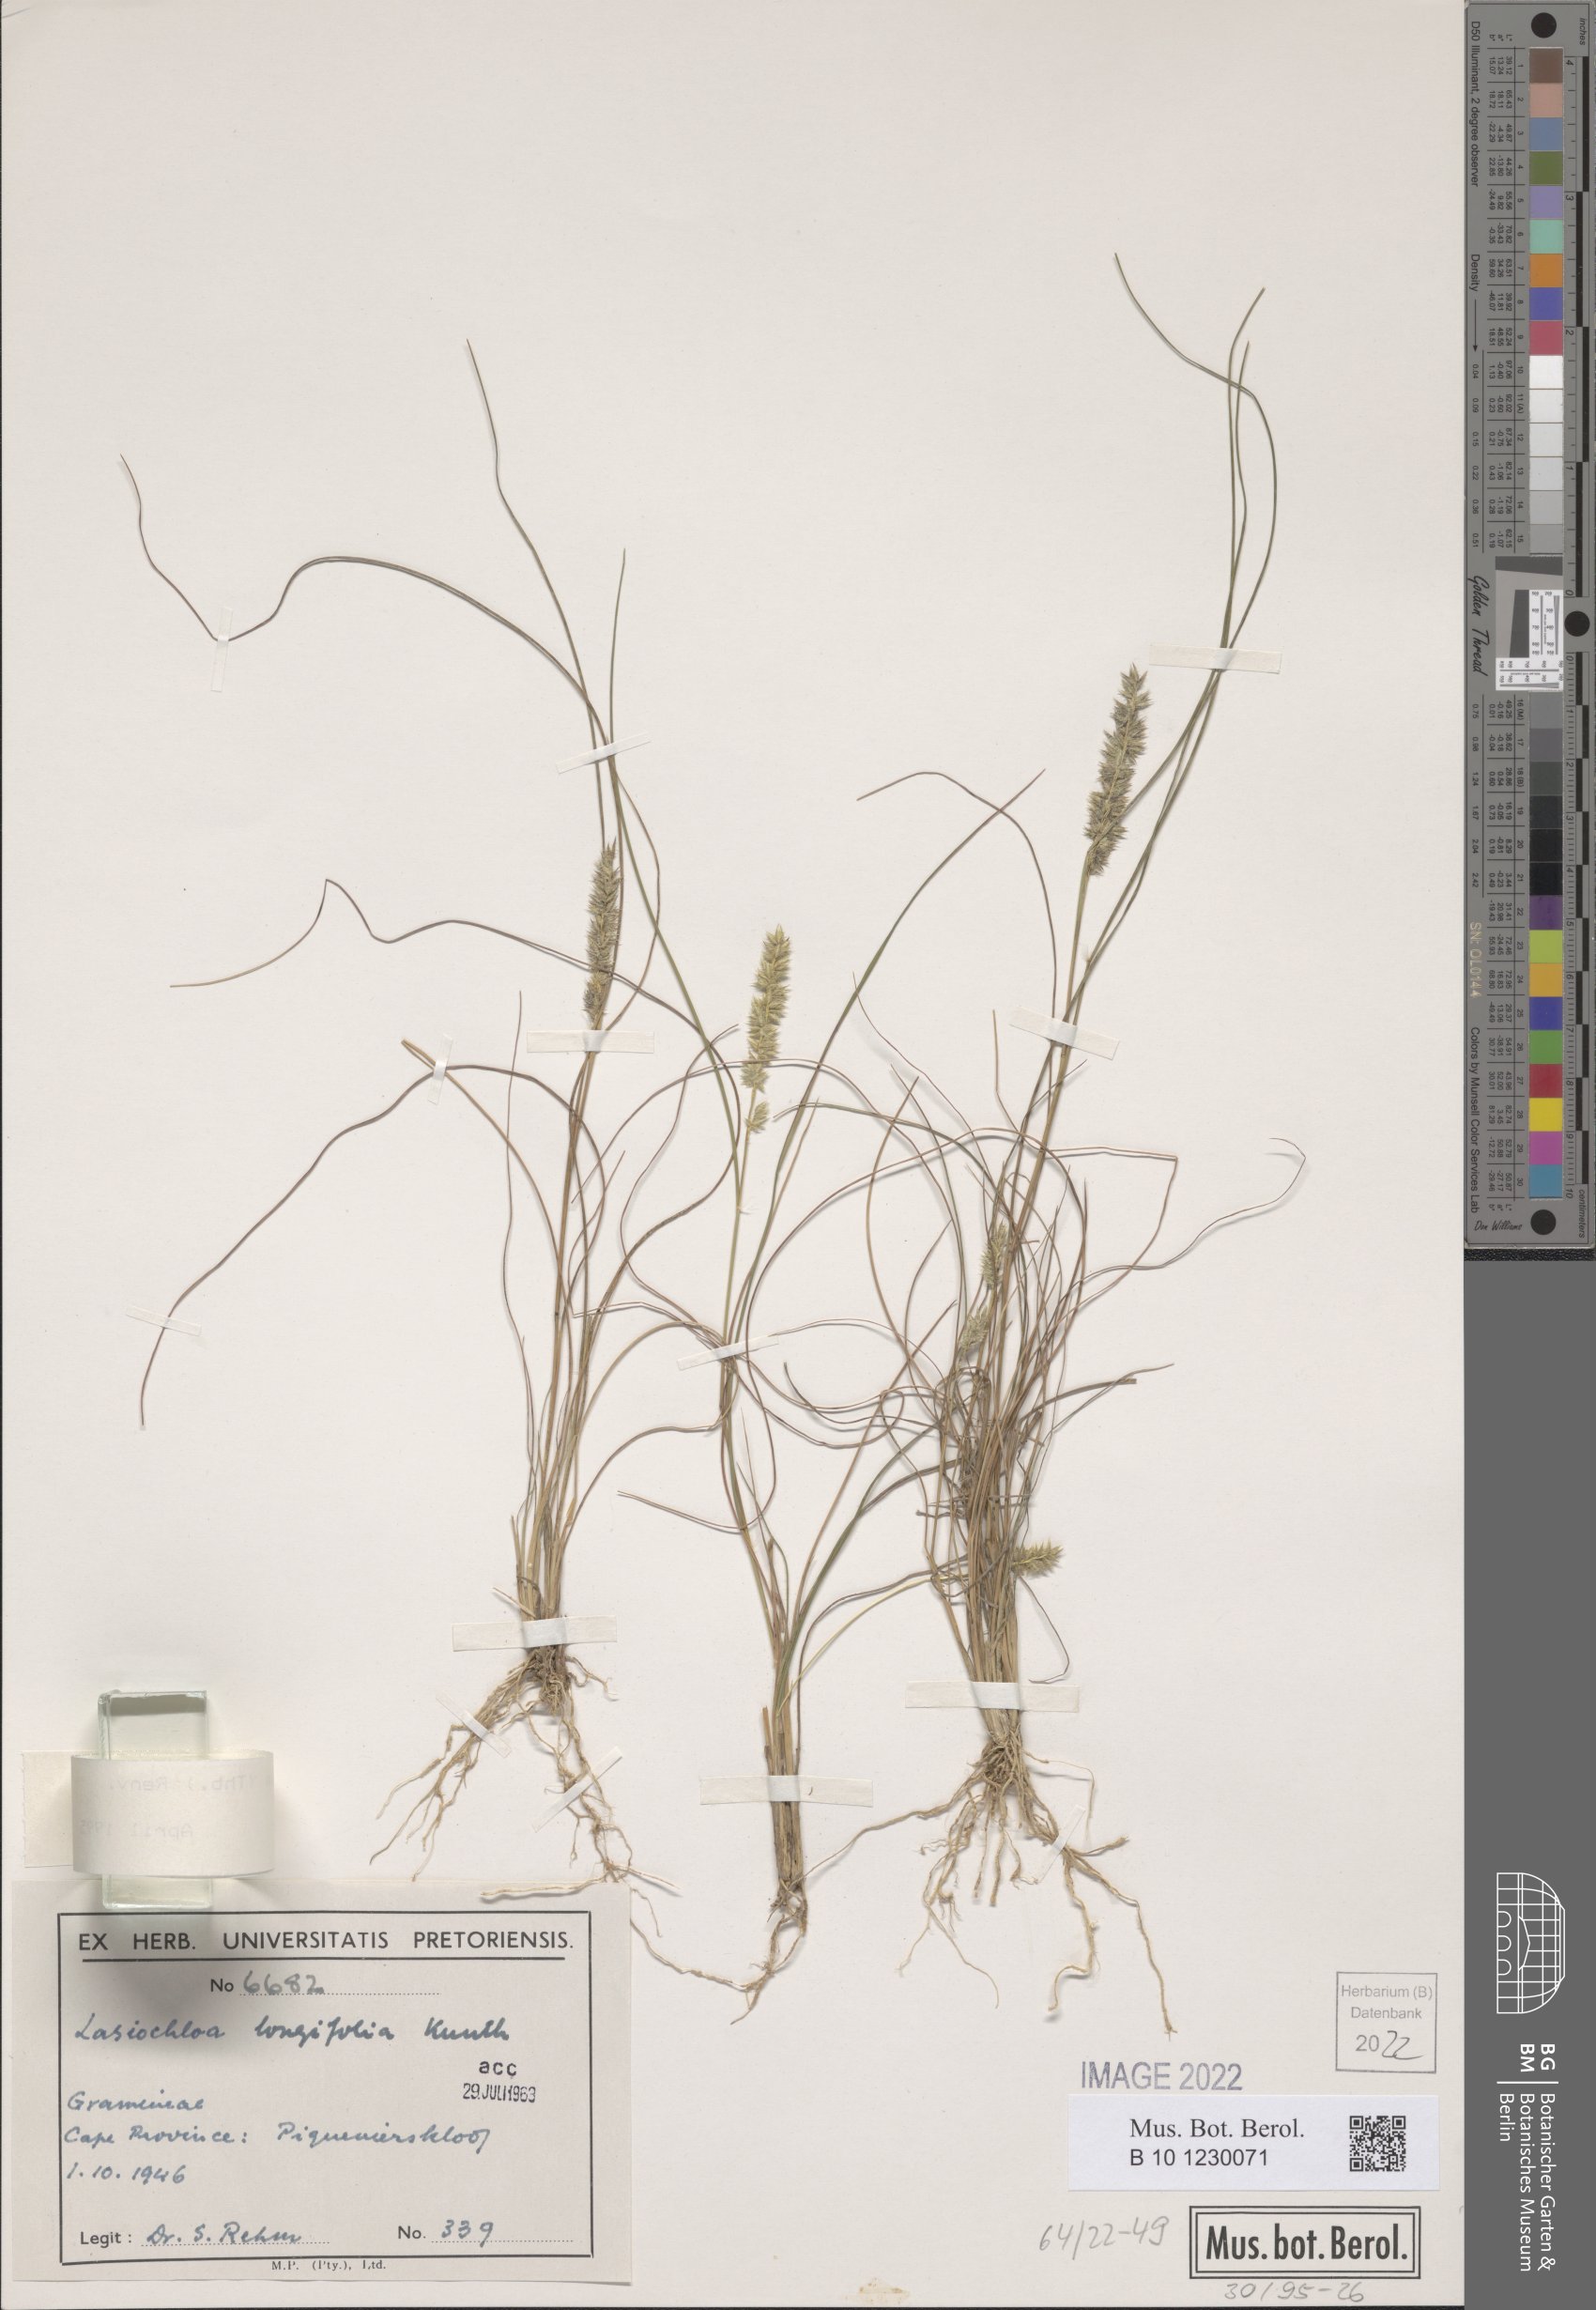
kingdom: Plantae
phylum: Tracheophyta
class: Liliopsida
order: Poales
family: Poaceae
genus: Tribolium
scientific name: Tribolium hispidum
